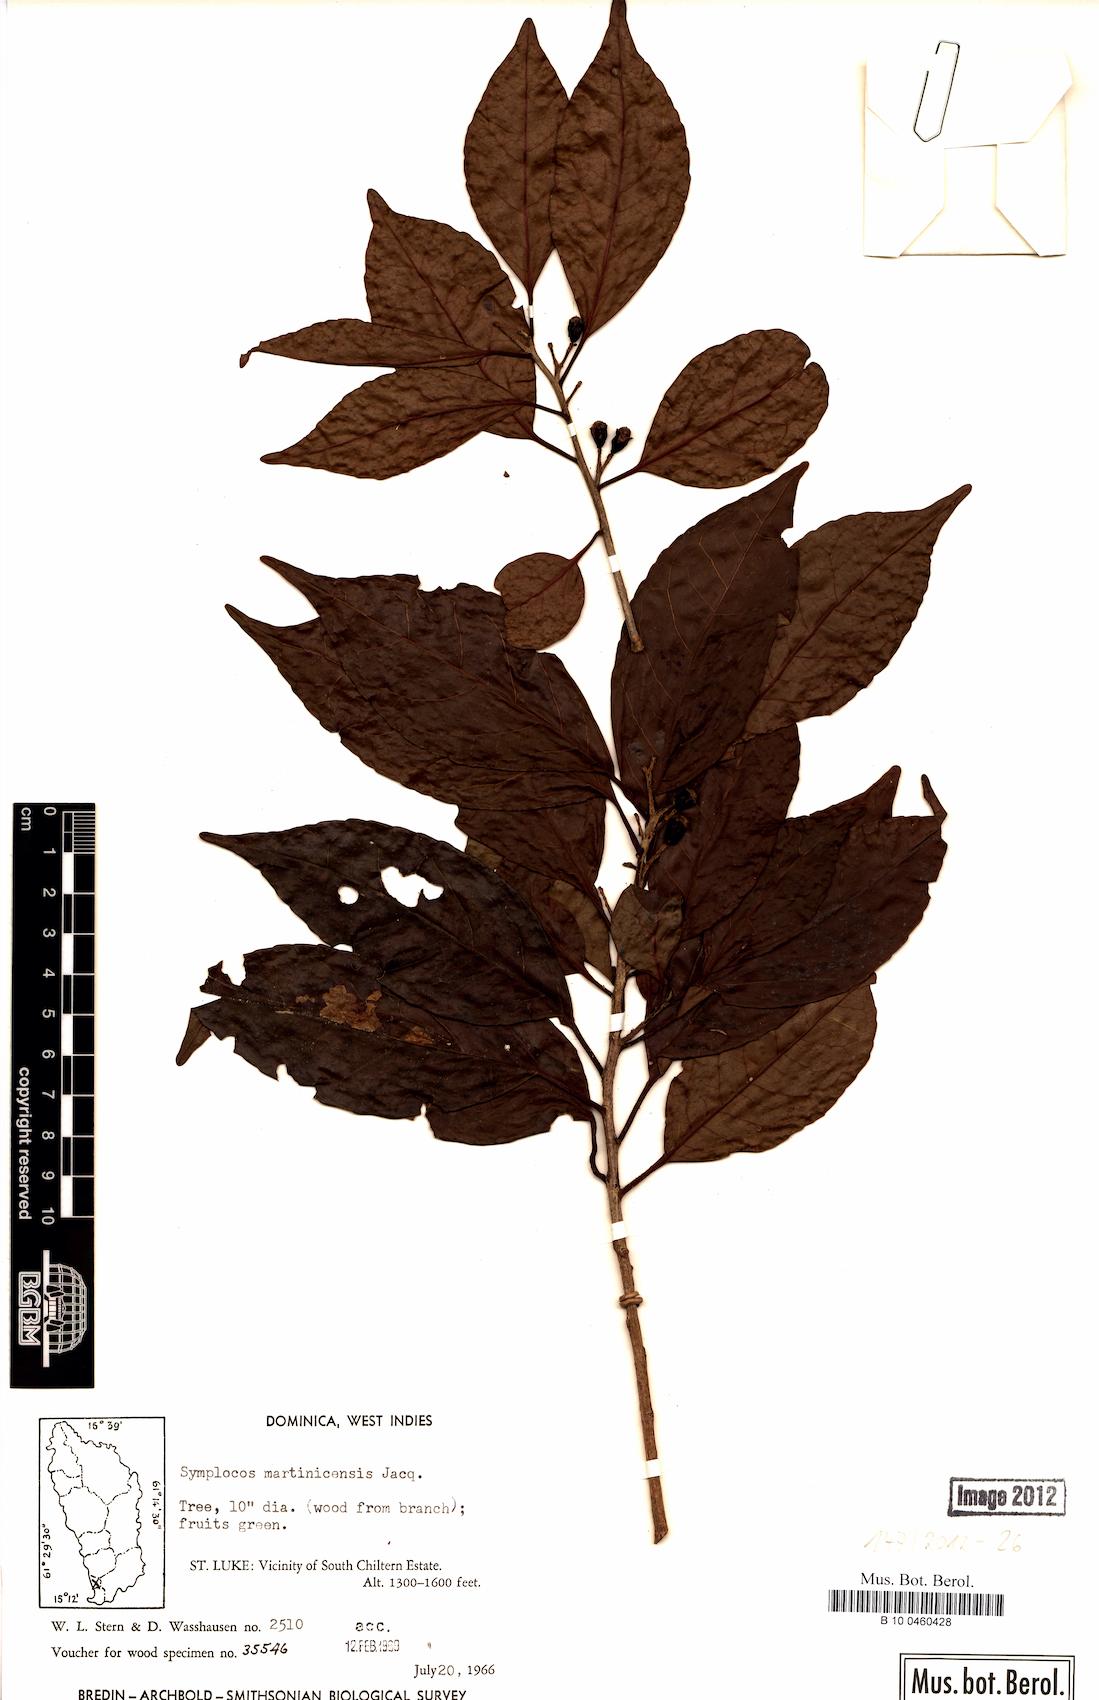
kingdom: Plantae
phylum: Tracheophyta
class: Magnoliopsida
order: Ericales
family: Symplocaceae
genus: Symplocos
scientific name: Symplocos martinicensis
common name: Blueberry
